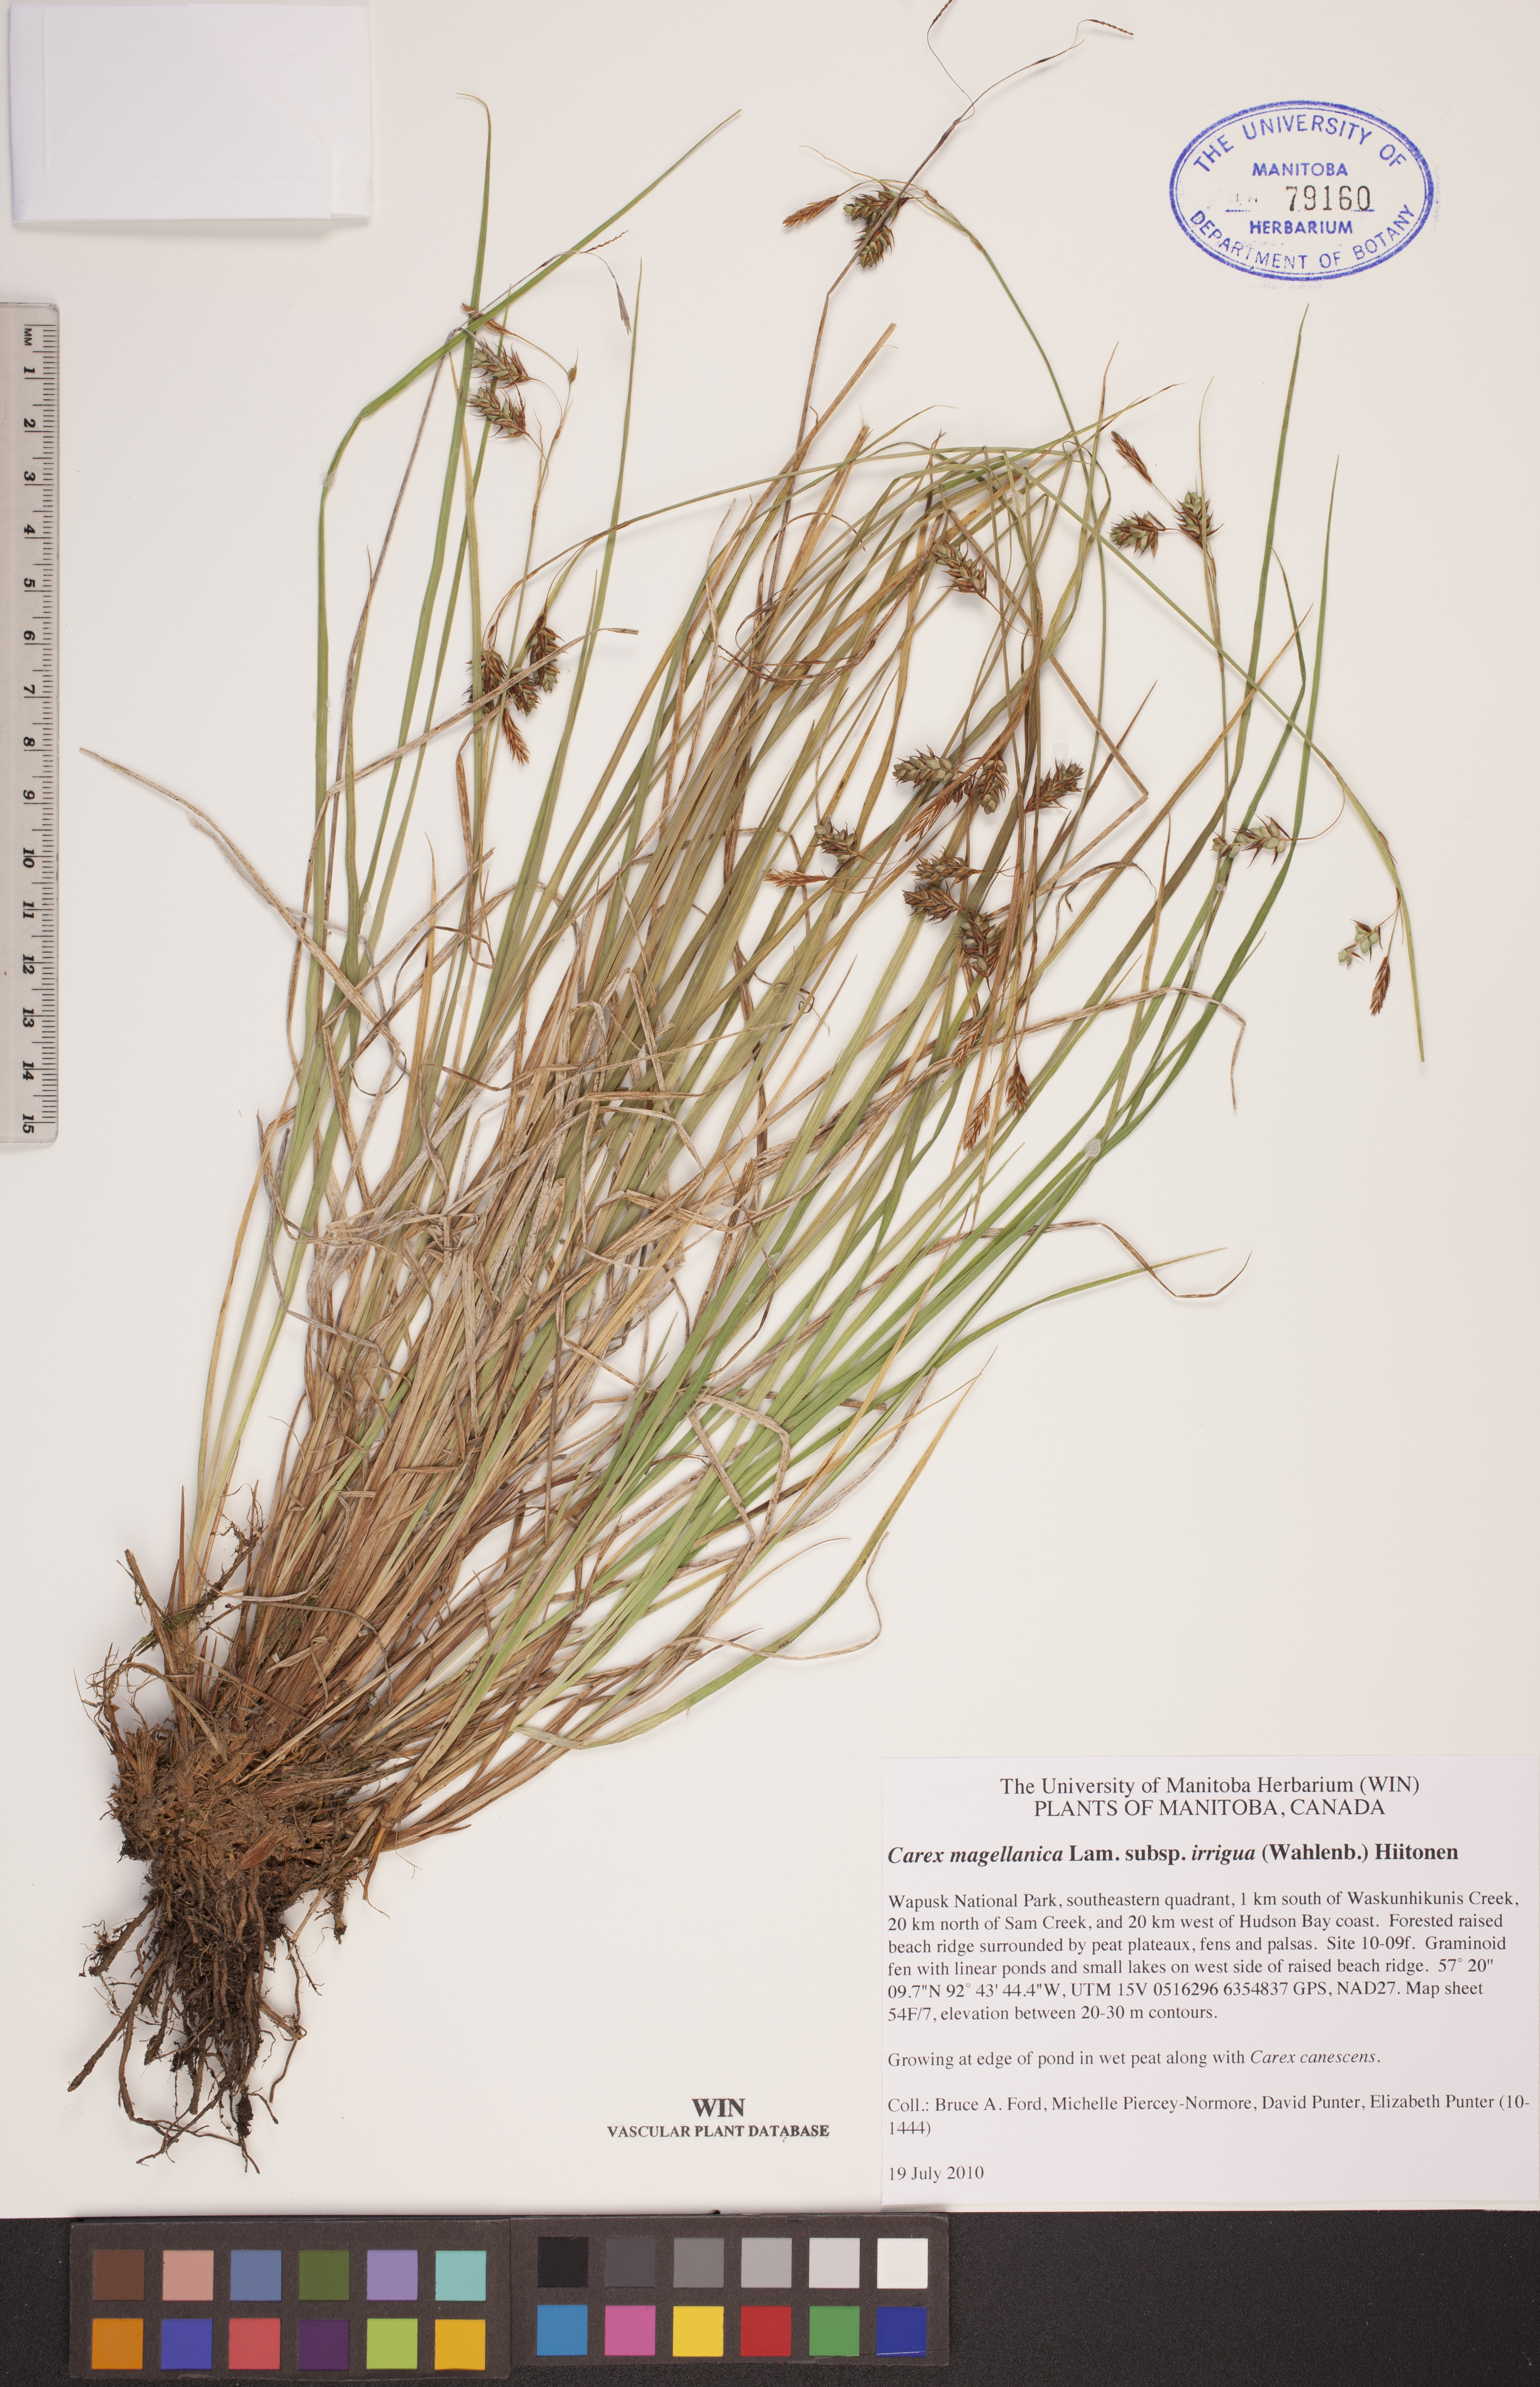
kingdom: Plantae
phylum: Tracheophyta
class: Liliopsida
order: Poales
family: Cyperaceae
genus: Carex
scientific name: Carex magellanica
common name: Bog sedge
